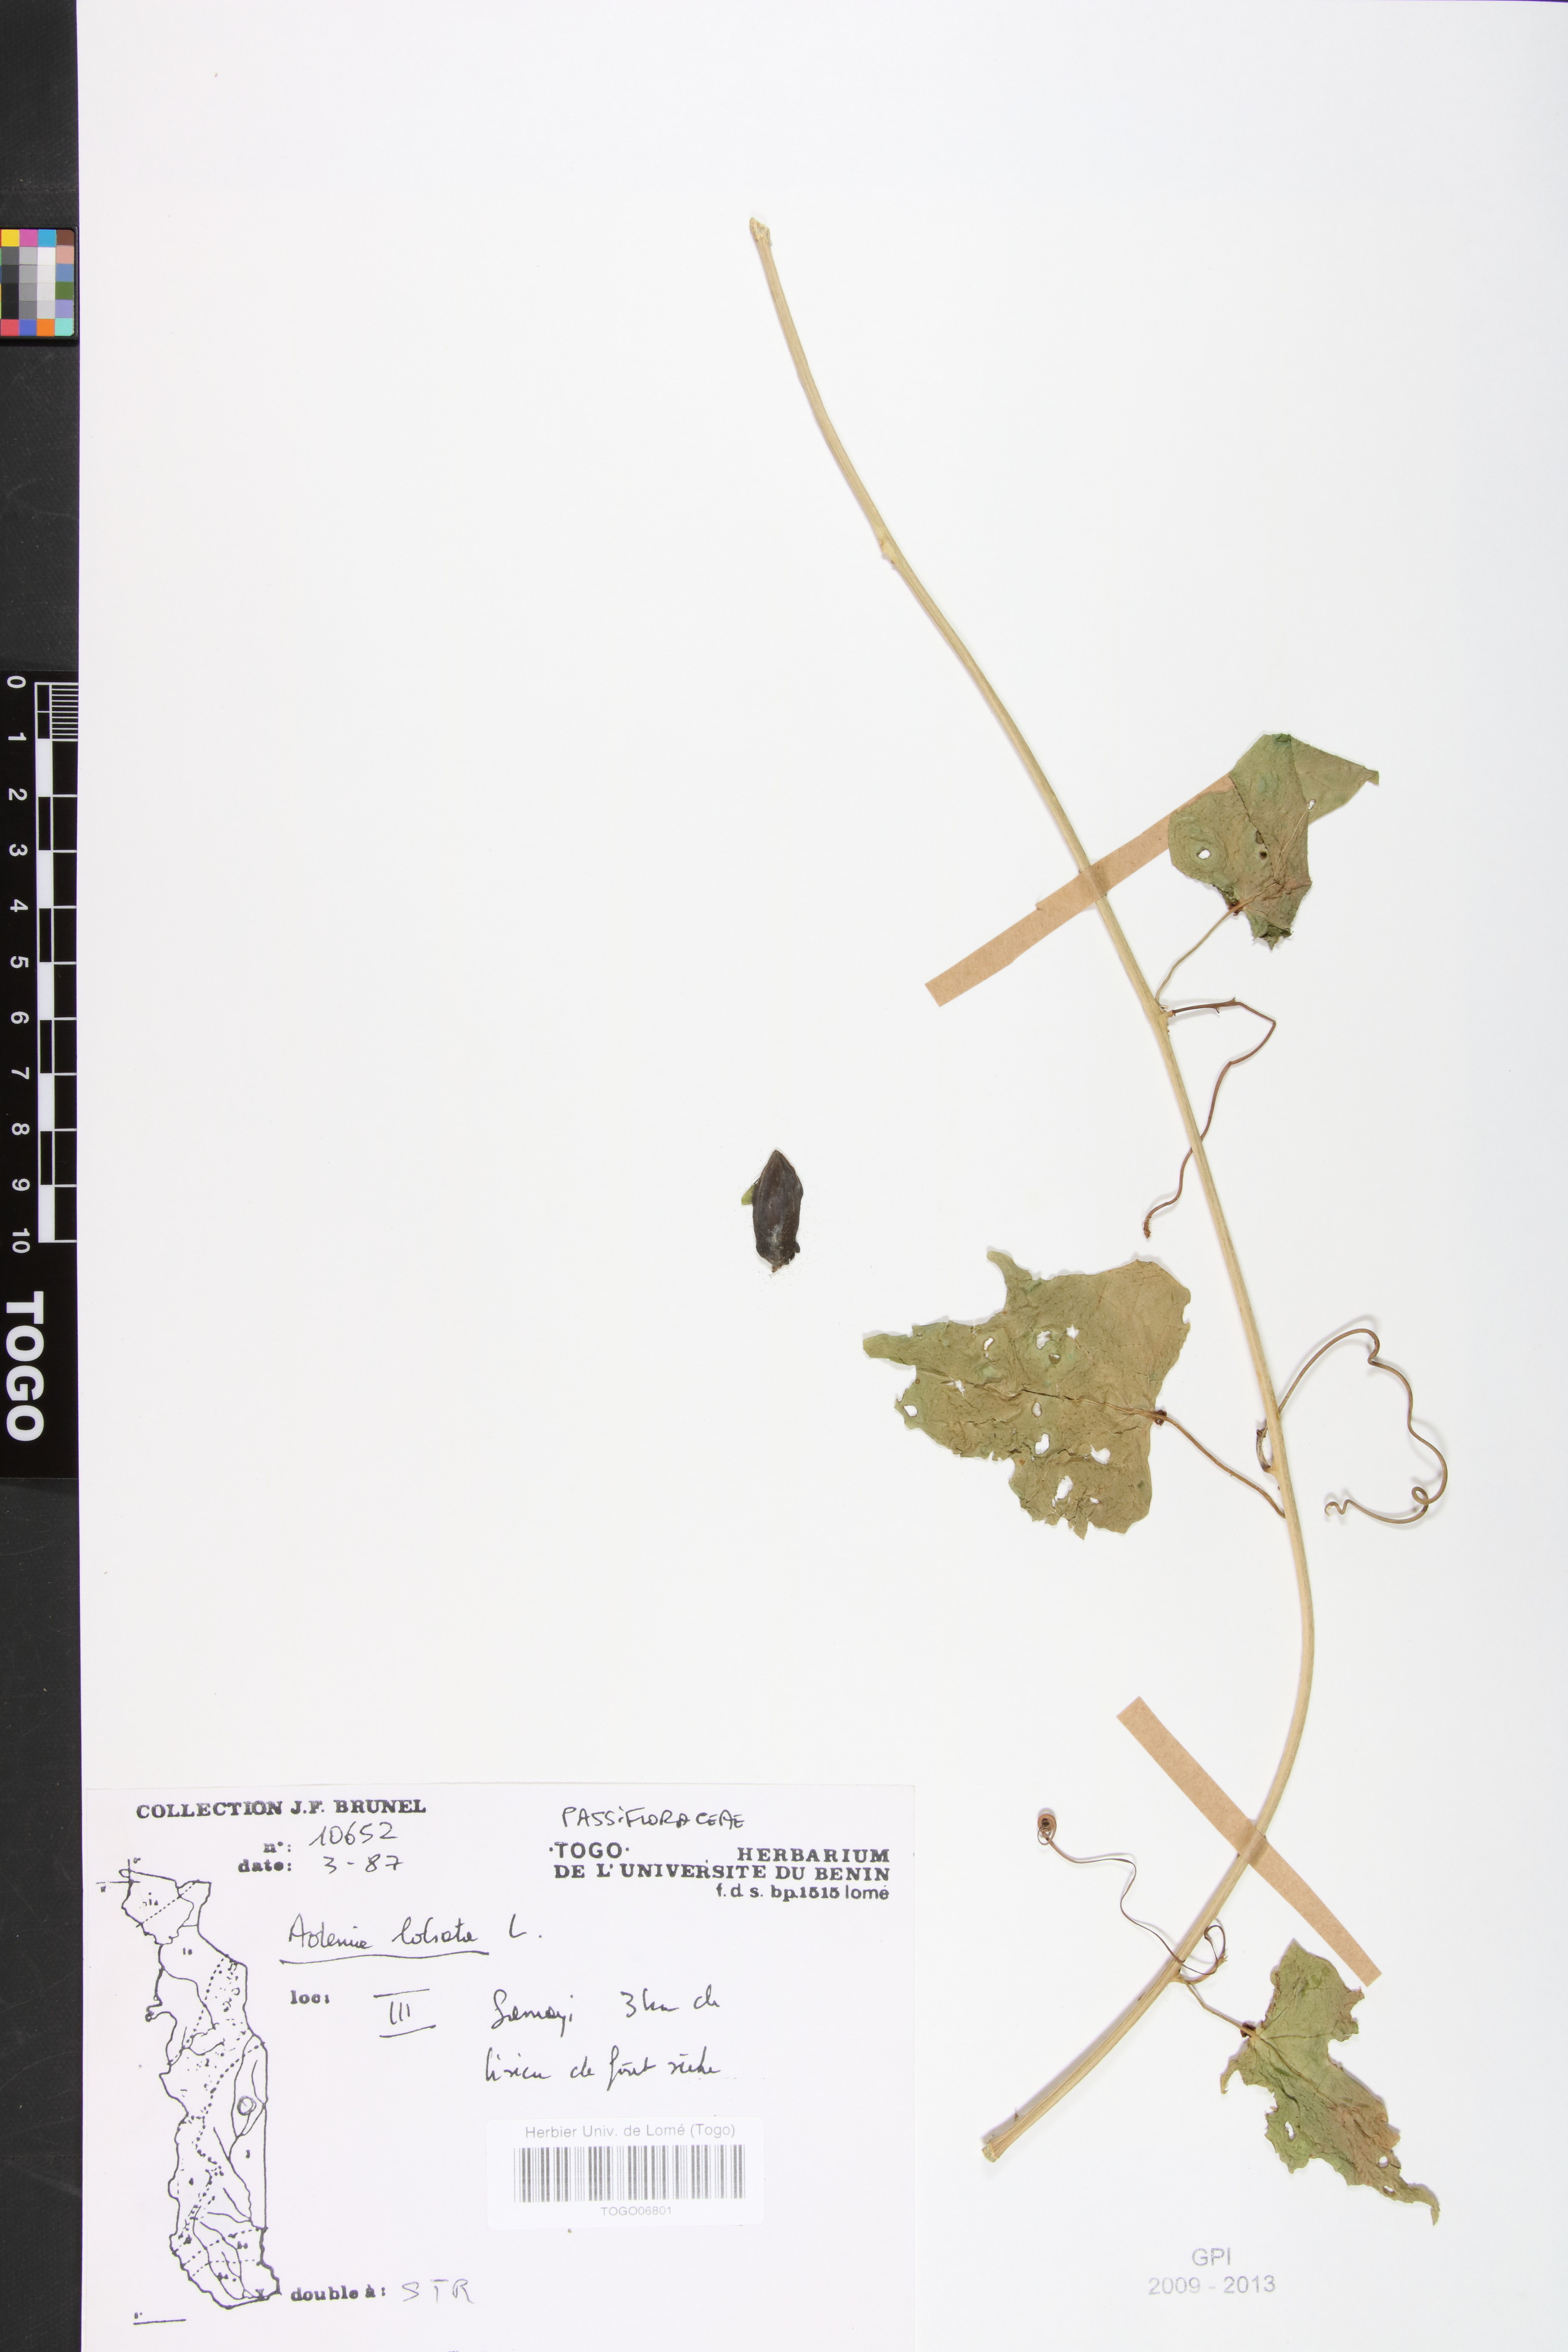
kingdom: Plantae
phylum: Tracheophyta
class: Magnoliopsida
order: Malpighiales
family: Passifloraceae
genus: Adenia
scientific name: Adenia lobata
